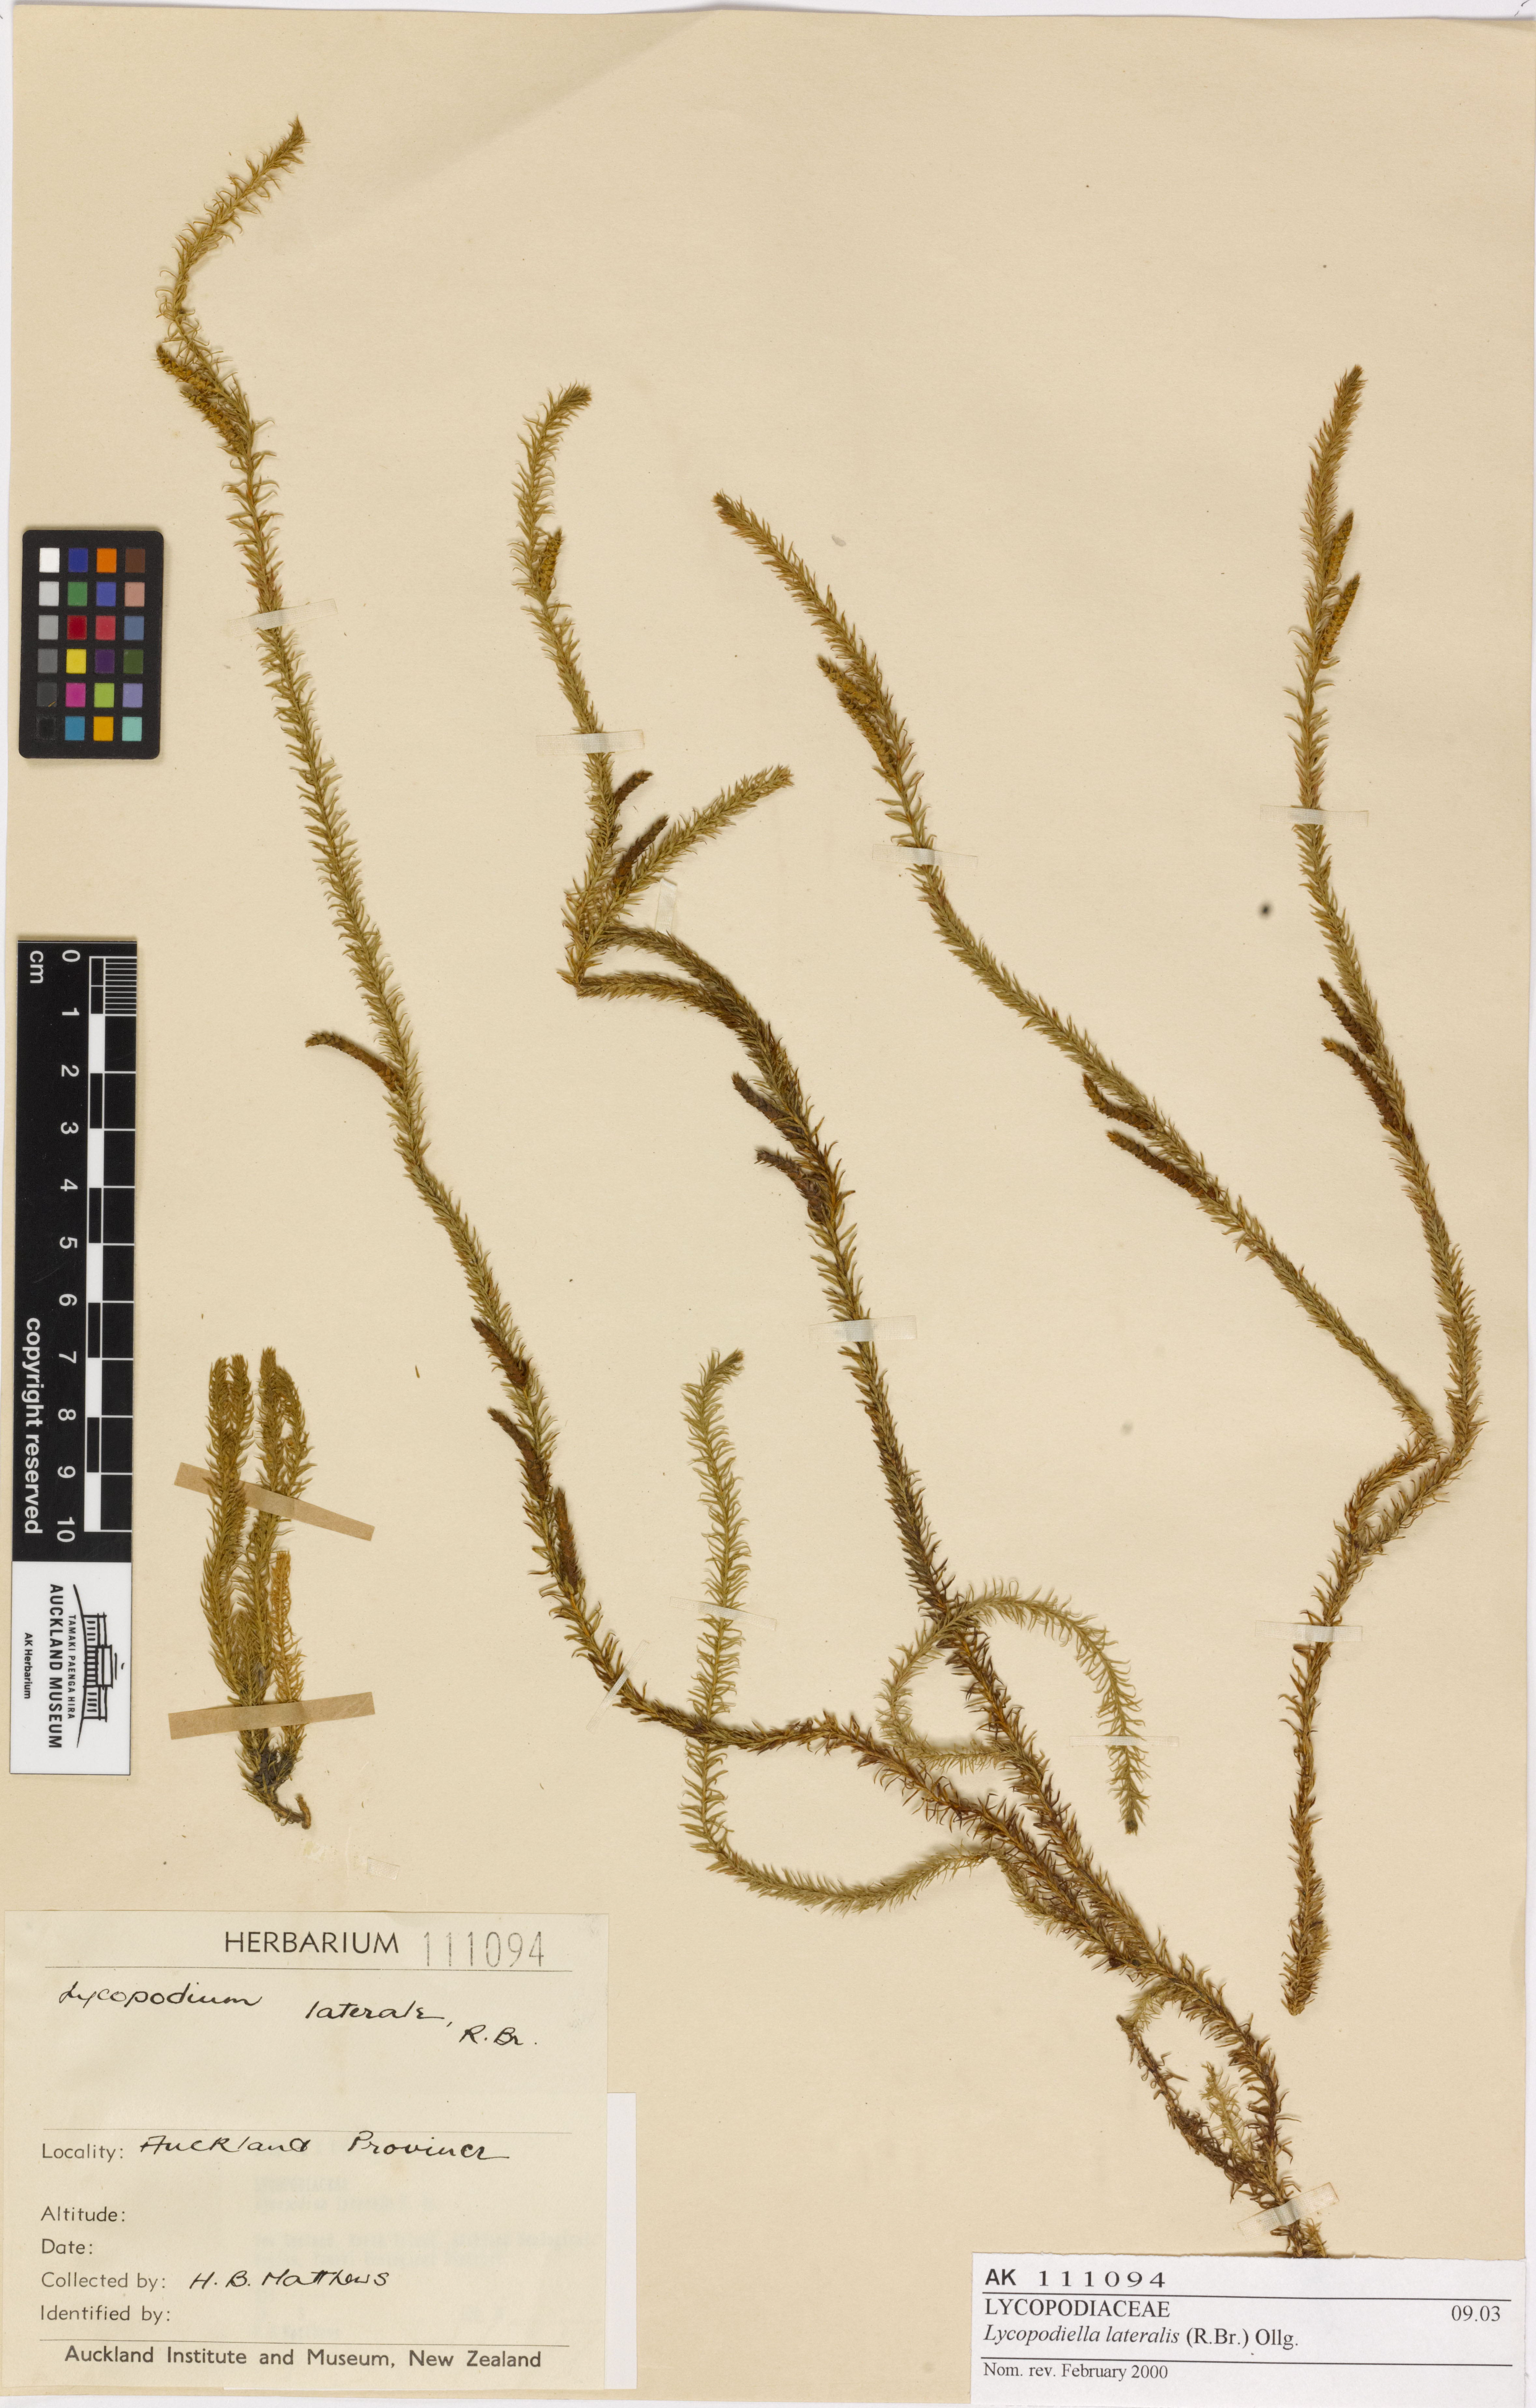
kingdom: Plantae
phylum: Tracheophyta
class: Lycopodiopsida
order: Lycopodiales
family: Lycopodiaceae
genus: Lateristachys
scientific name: Lateristachys lateralis
